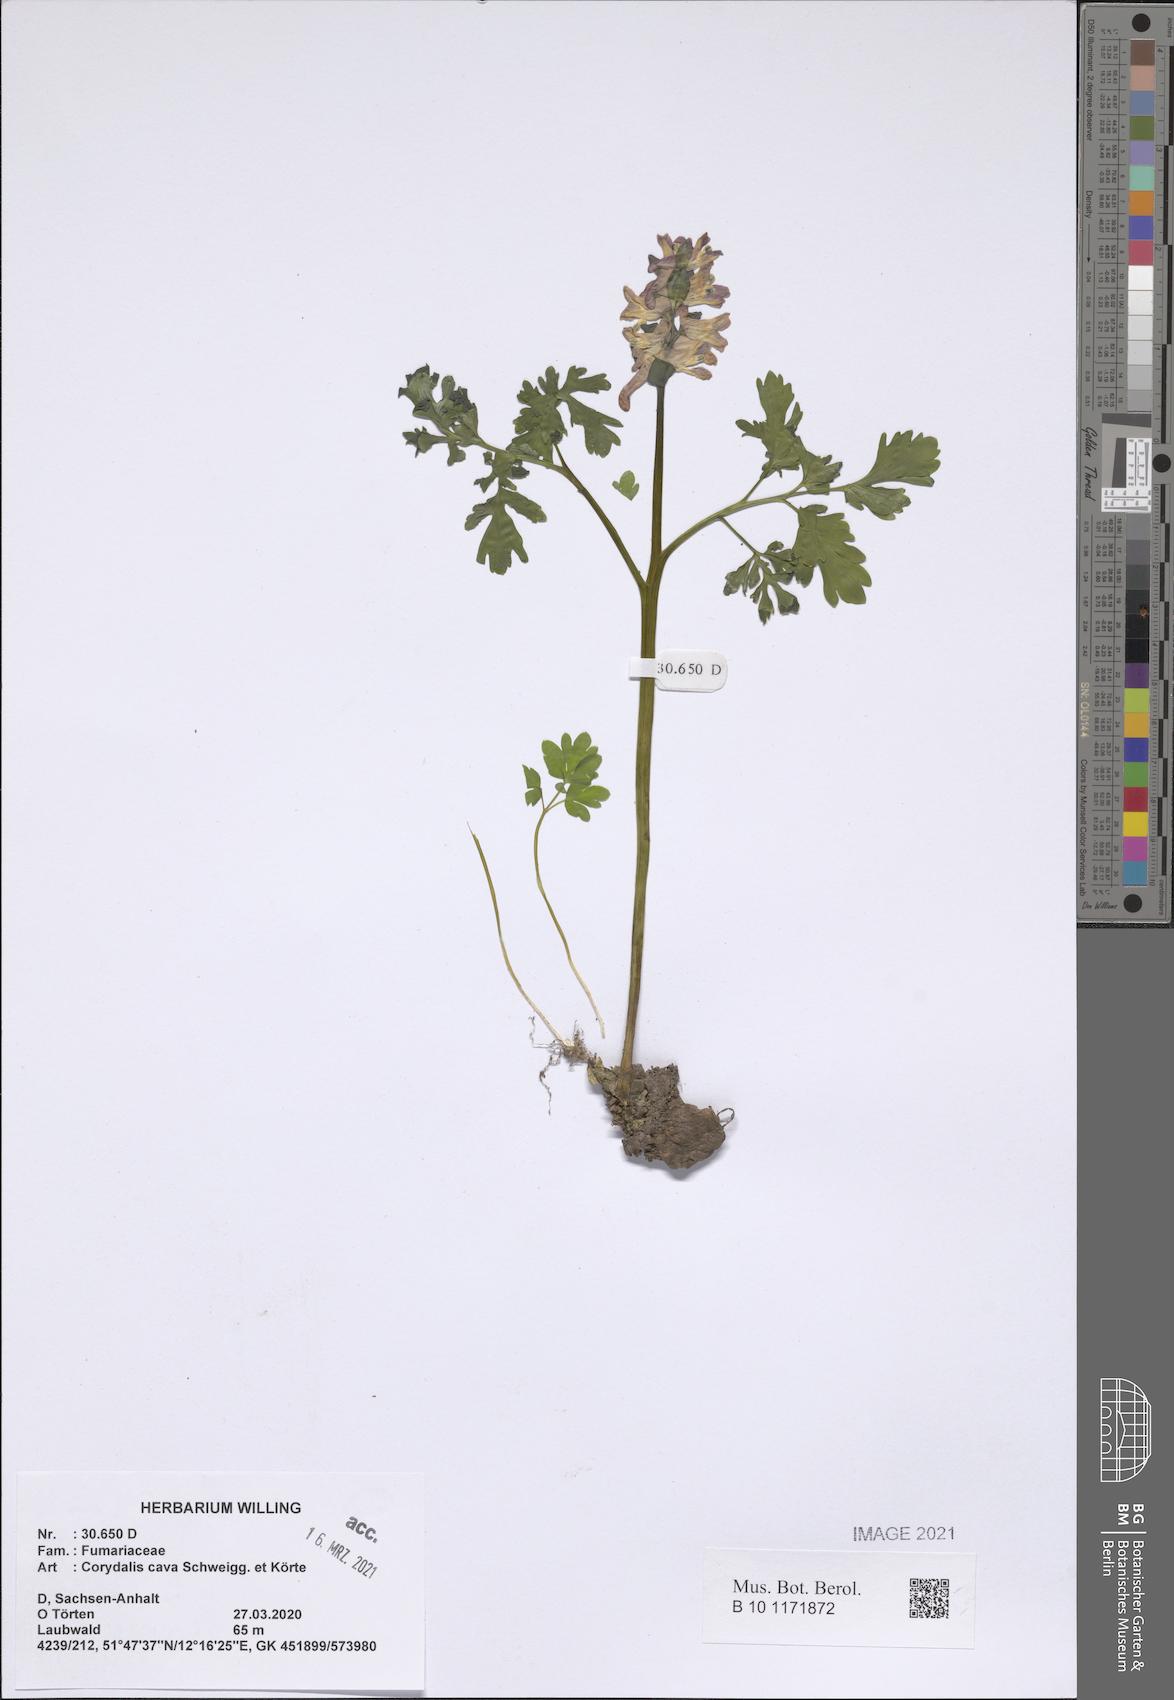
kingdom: Plantae
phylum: Tracheophyta
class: Magnoliopsida
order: Ranunculales
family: Papaveraceae
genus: Corydalis
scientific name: Corydalis cava
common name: Hollowroot
